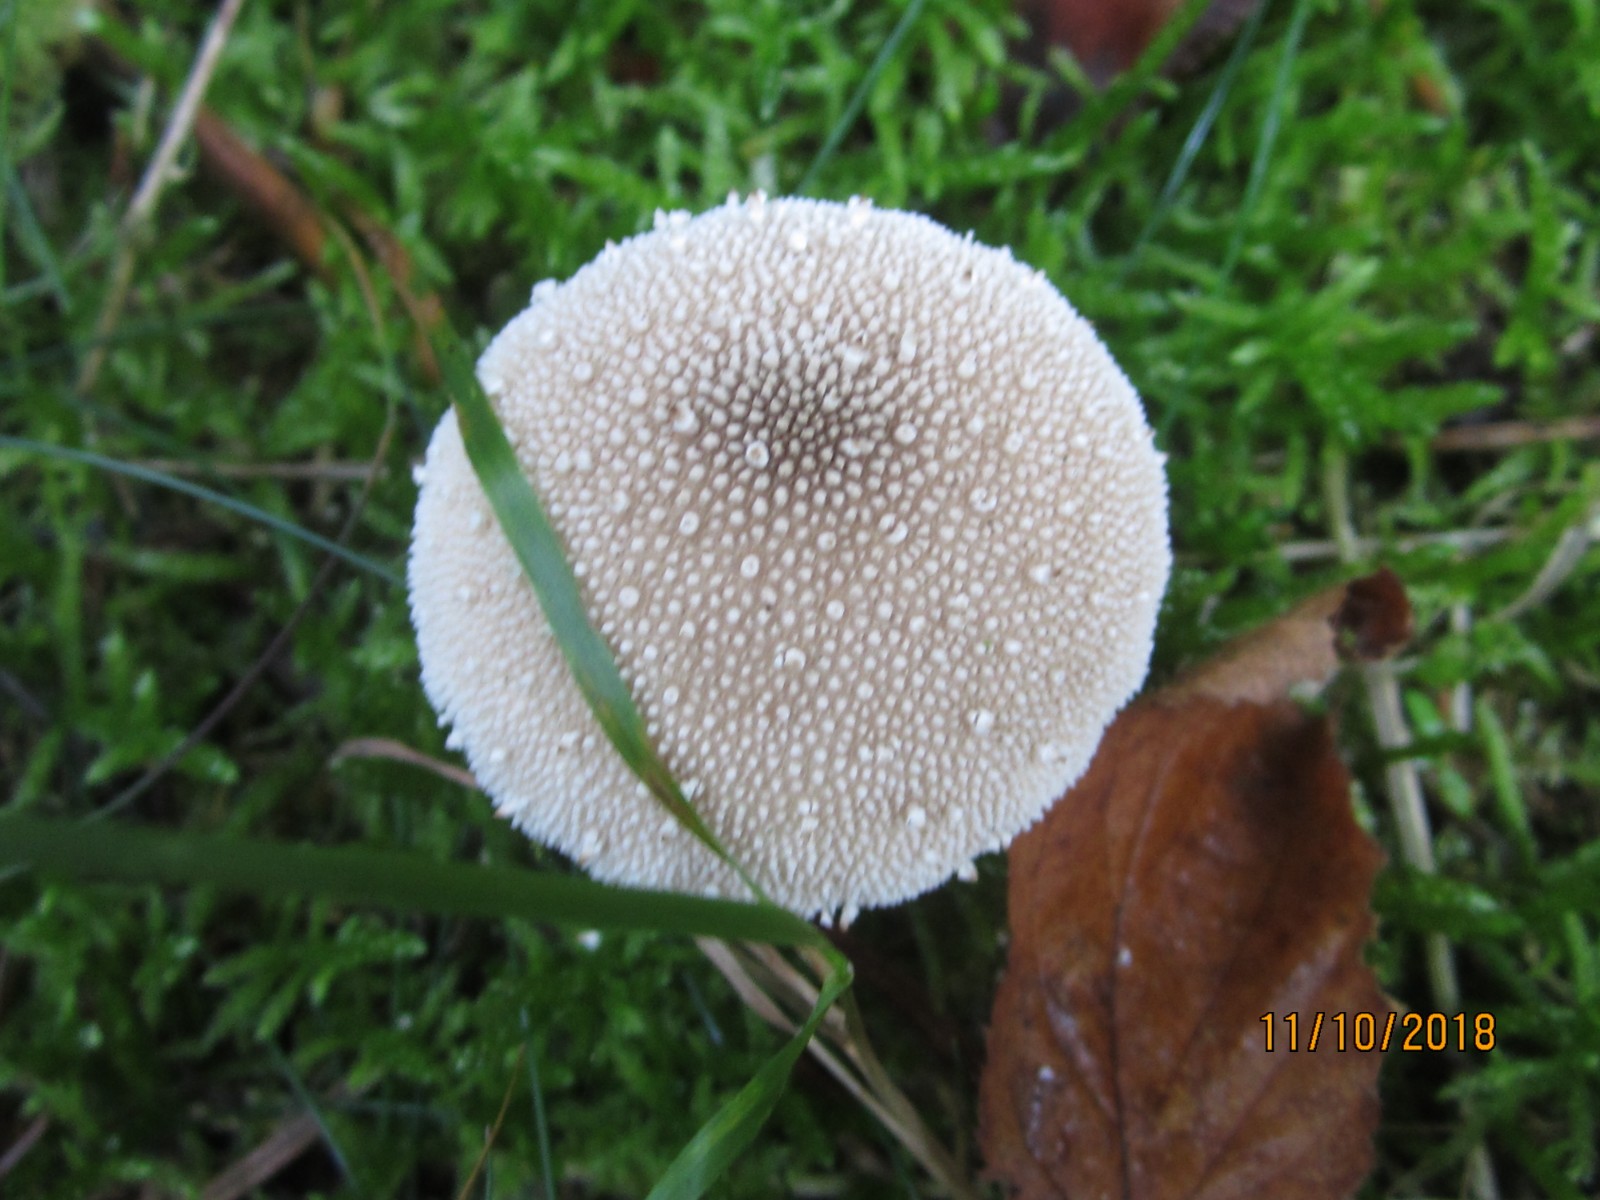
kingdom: Fungi
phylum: Basidiomycota
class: Agaricomycetes
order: Agaricales
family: Lycoperdaceae
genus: Lycoperdon
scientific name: Lycoperdon perlatum
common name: krystal-støvbold
